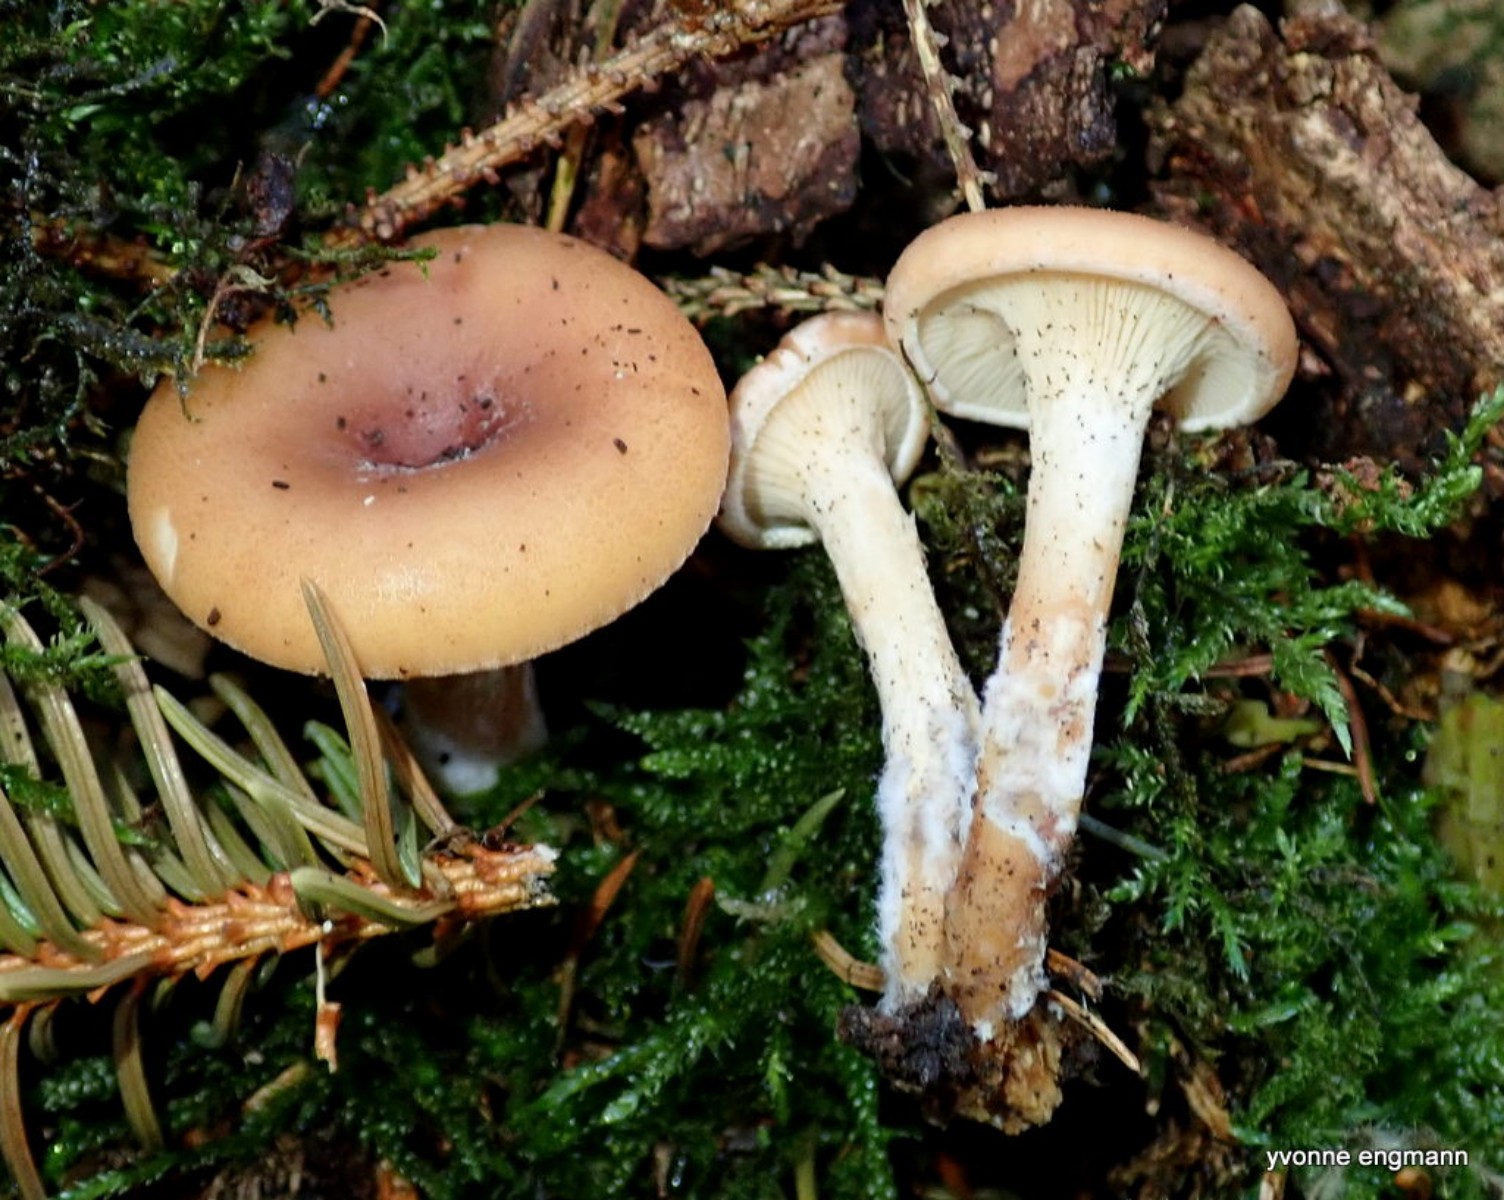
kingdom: Fungi
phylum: Basidiomycota
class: Agaricomycetes
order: Agaricales
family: Tricholomataceae
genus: Paralepista
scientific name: Paralepista flaccida
